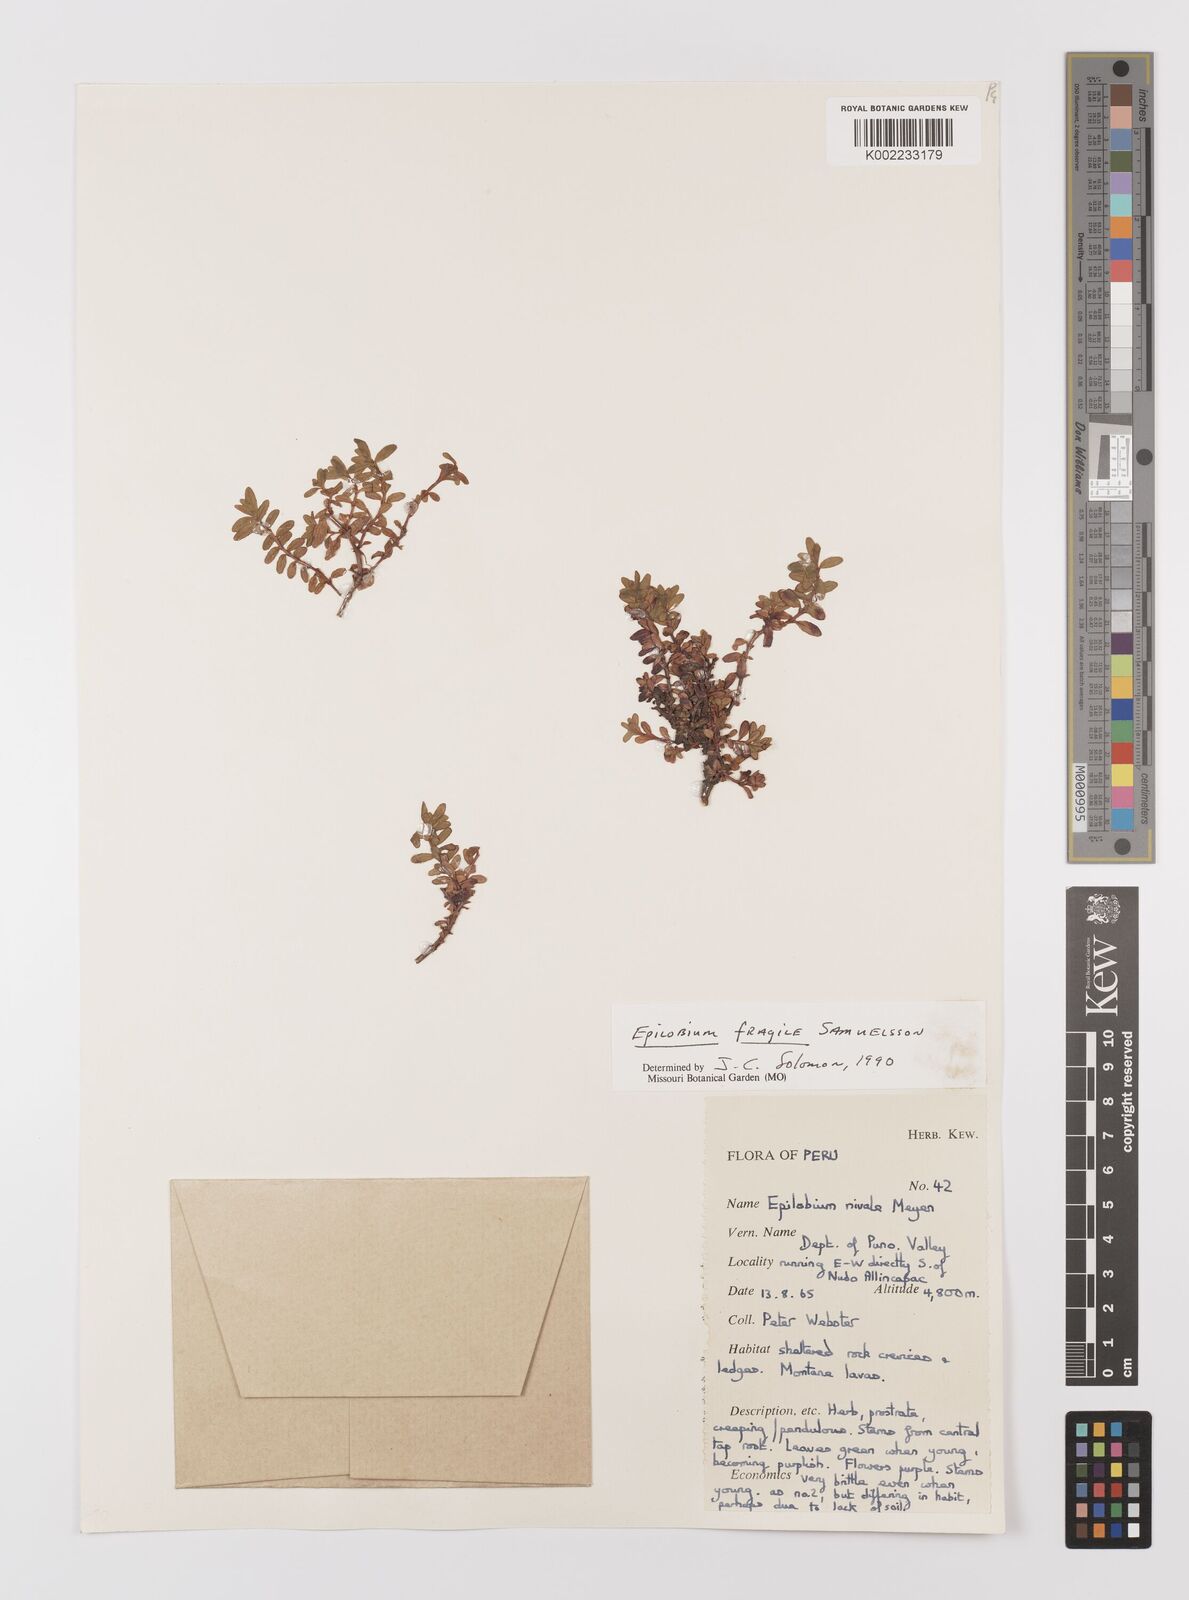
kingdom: Plantae
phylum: Tracheophyta
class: Magnoliopsida
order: Myrtales
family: Onagraceae
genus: Epilobium
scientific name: Epilobium fragile
